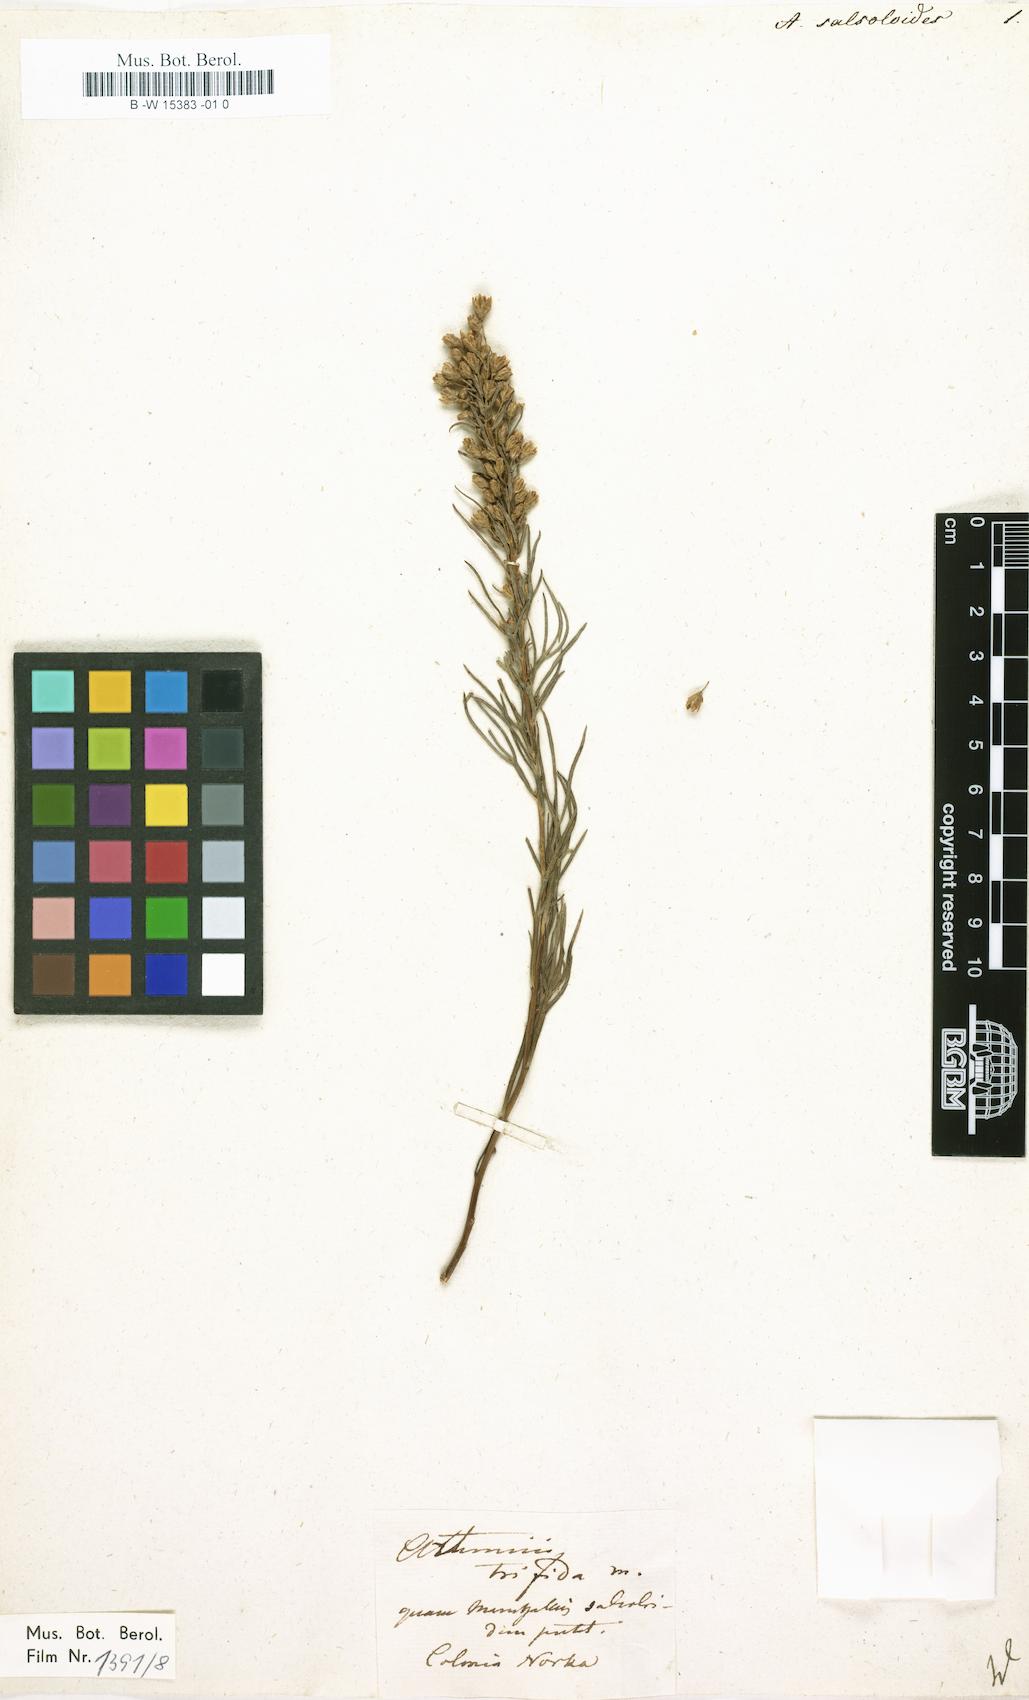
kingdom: Plantae
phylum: Tracheophyta
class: Magnoliopsida
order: Asterales
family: Asteraceae
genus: Artemisia
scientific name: Artemisia salsoloides
